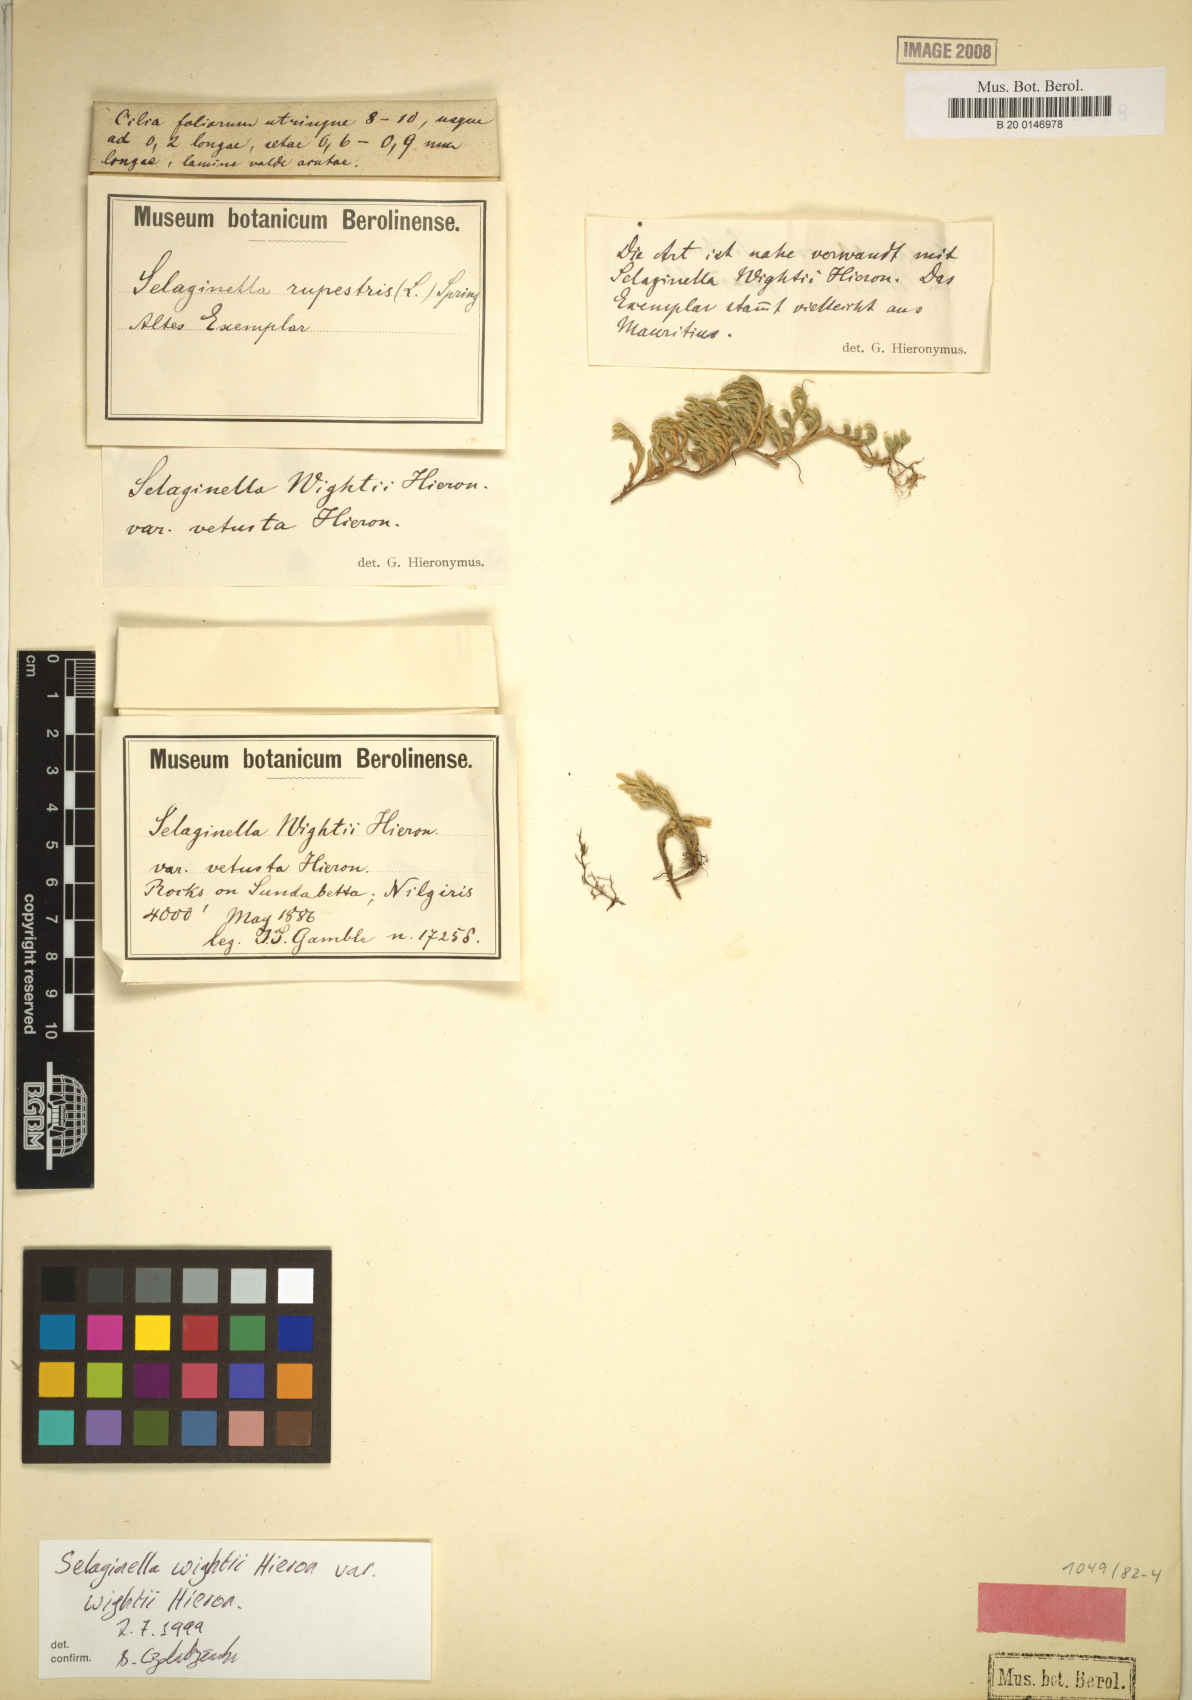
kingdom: Plantae
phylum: Tracheophyta
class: Lycopodiopsida
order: Selaginellales
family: Selaginellaceae
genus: Selaginella
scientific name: Selaginella wightii
